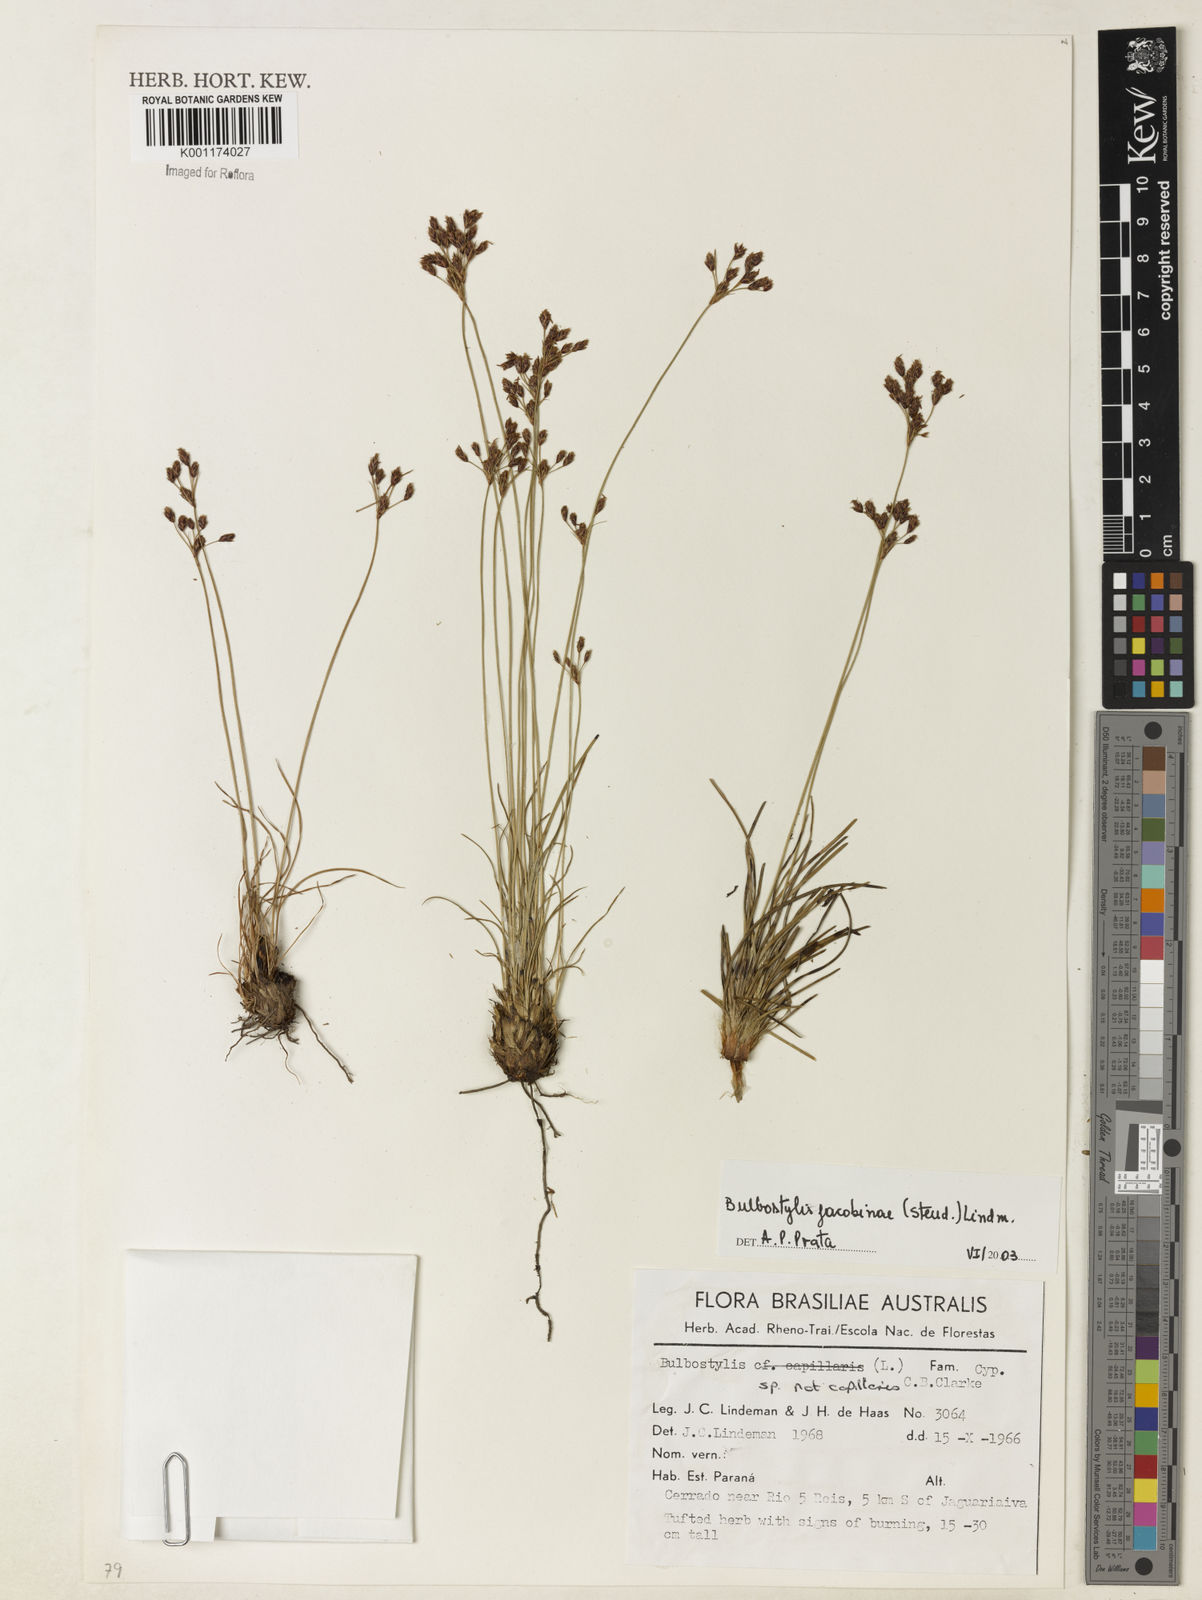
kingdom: Plantae
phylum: Tracheophyta
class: Liliopsida
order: Poales
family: Cyperaceae
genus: Bulbostylis
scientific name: Bulbostylis jacobinae
